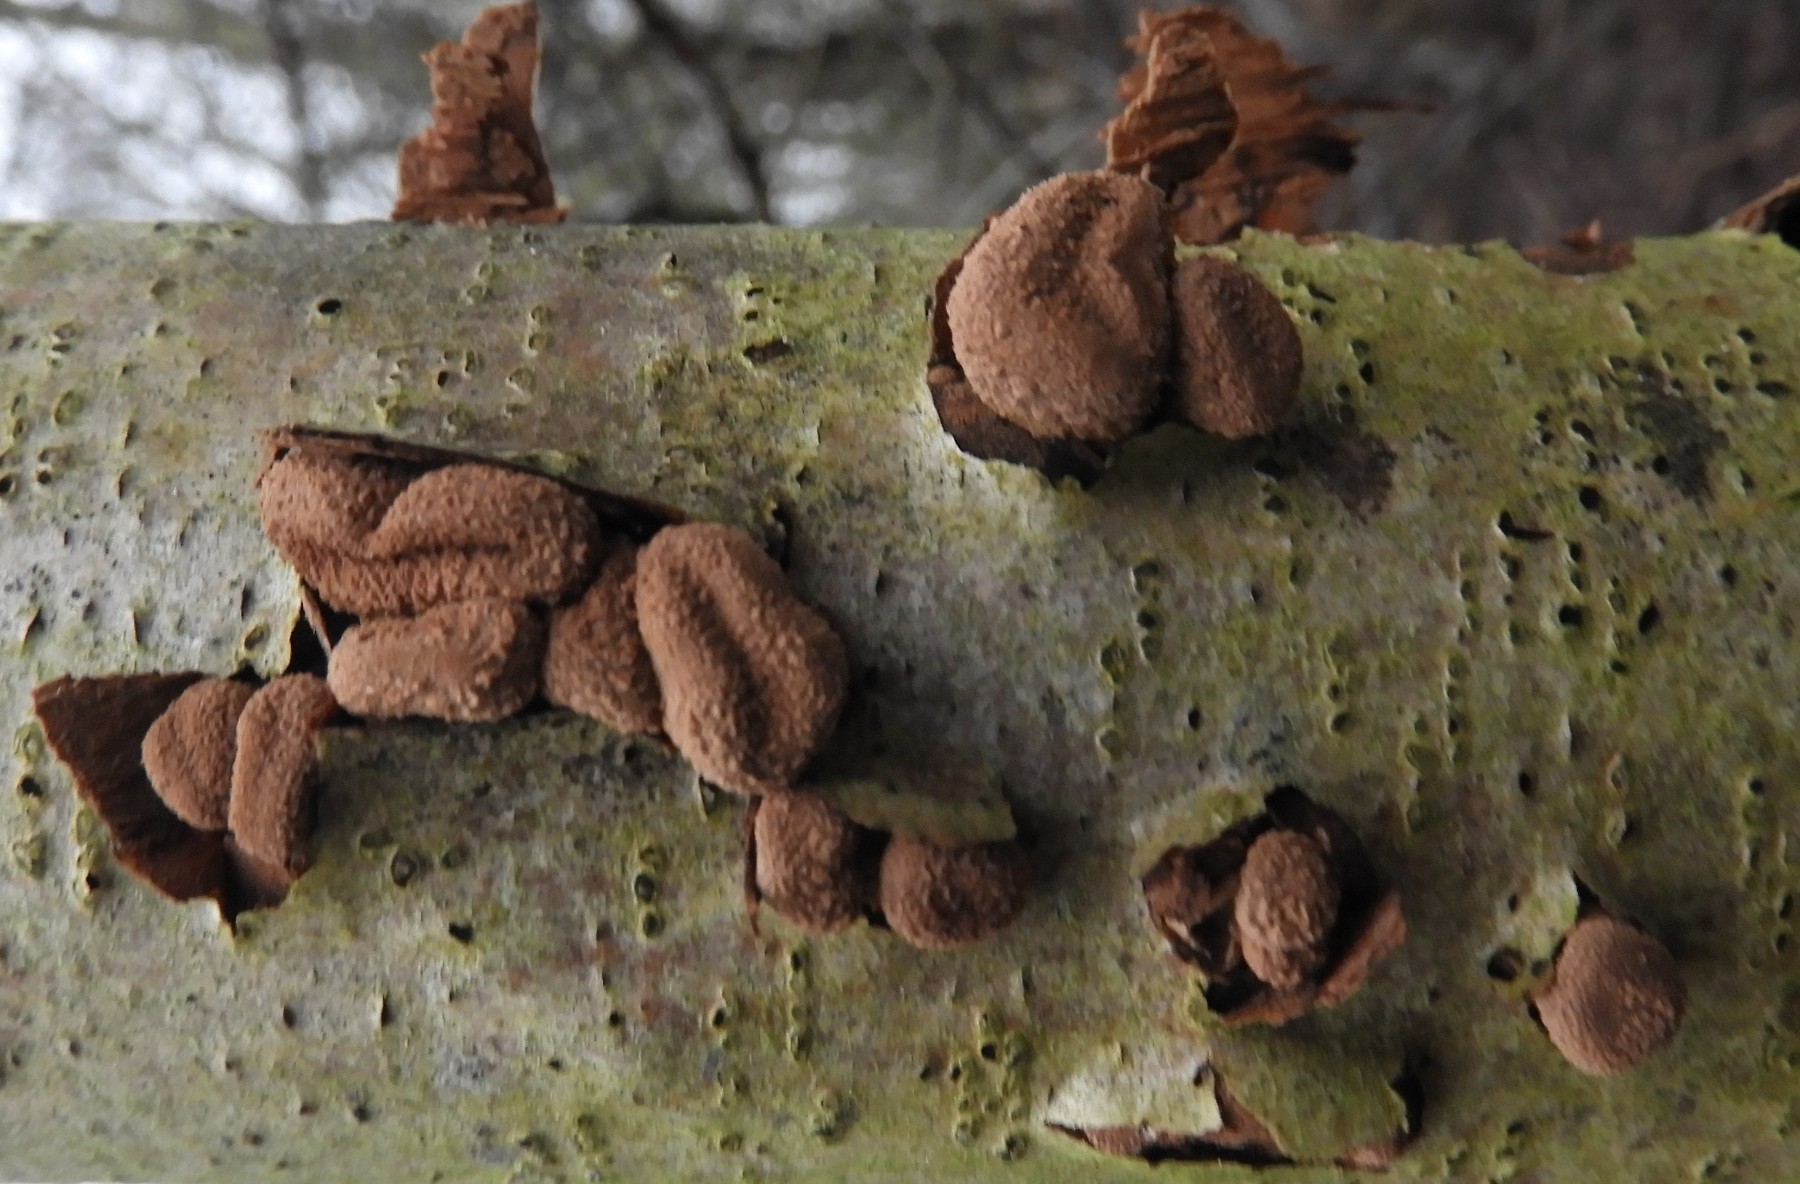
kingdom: Fungi
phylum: Ascomycota
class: Leotiomycetes
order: Helotiales
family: Cenangiaceae
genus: Encoelia
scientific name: Encoelia furfuracea
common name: hassel-læderskive
